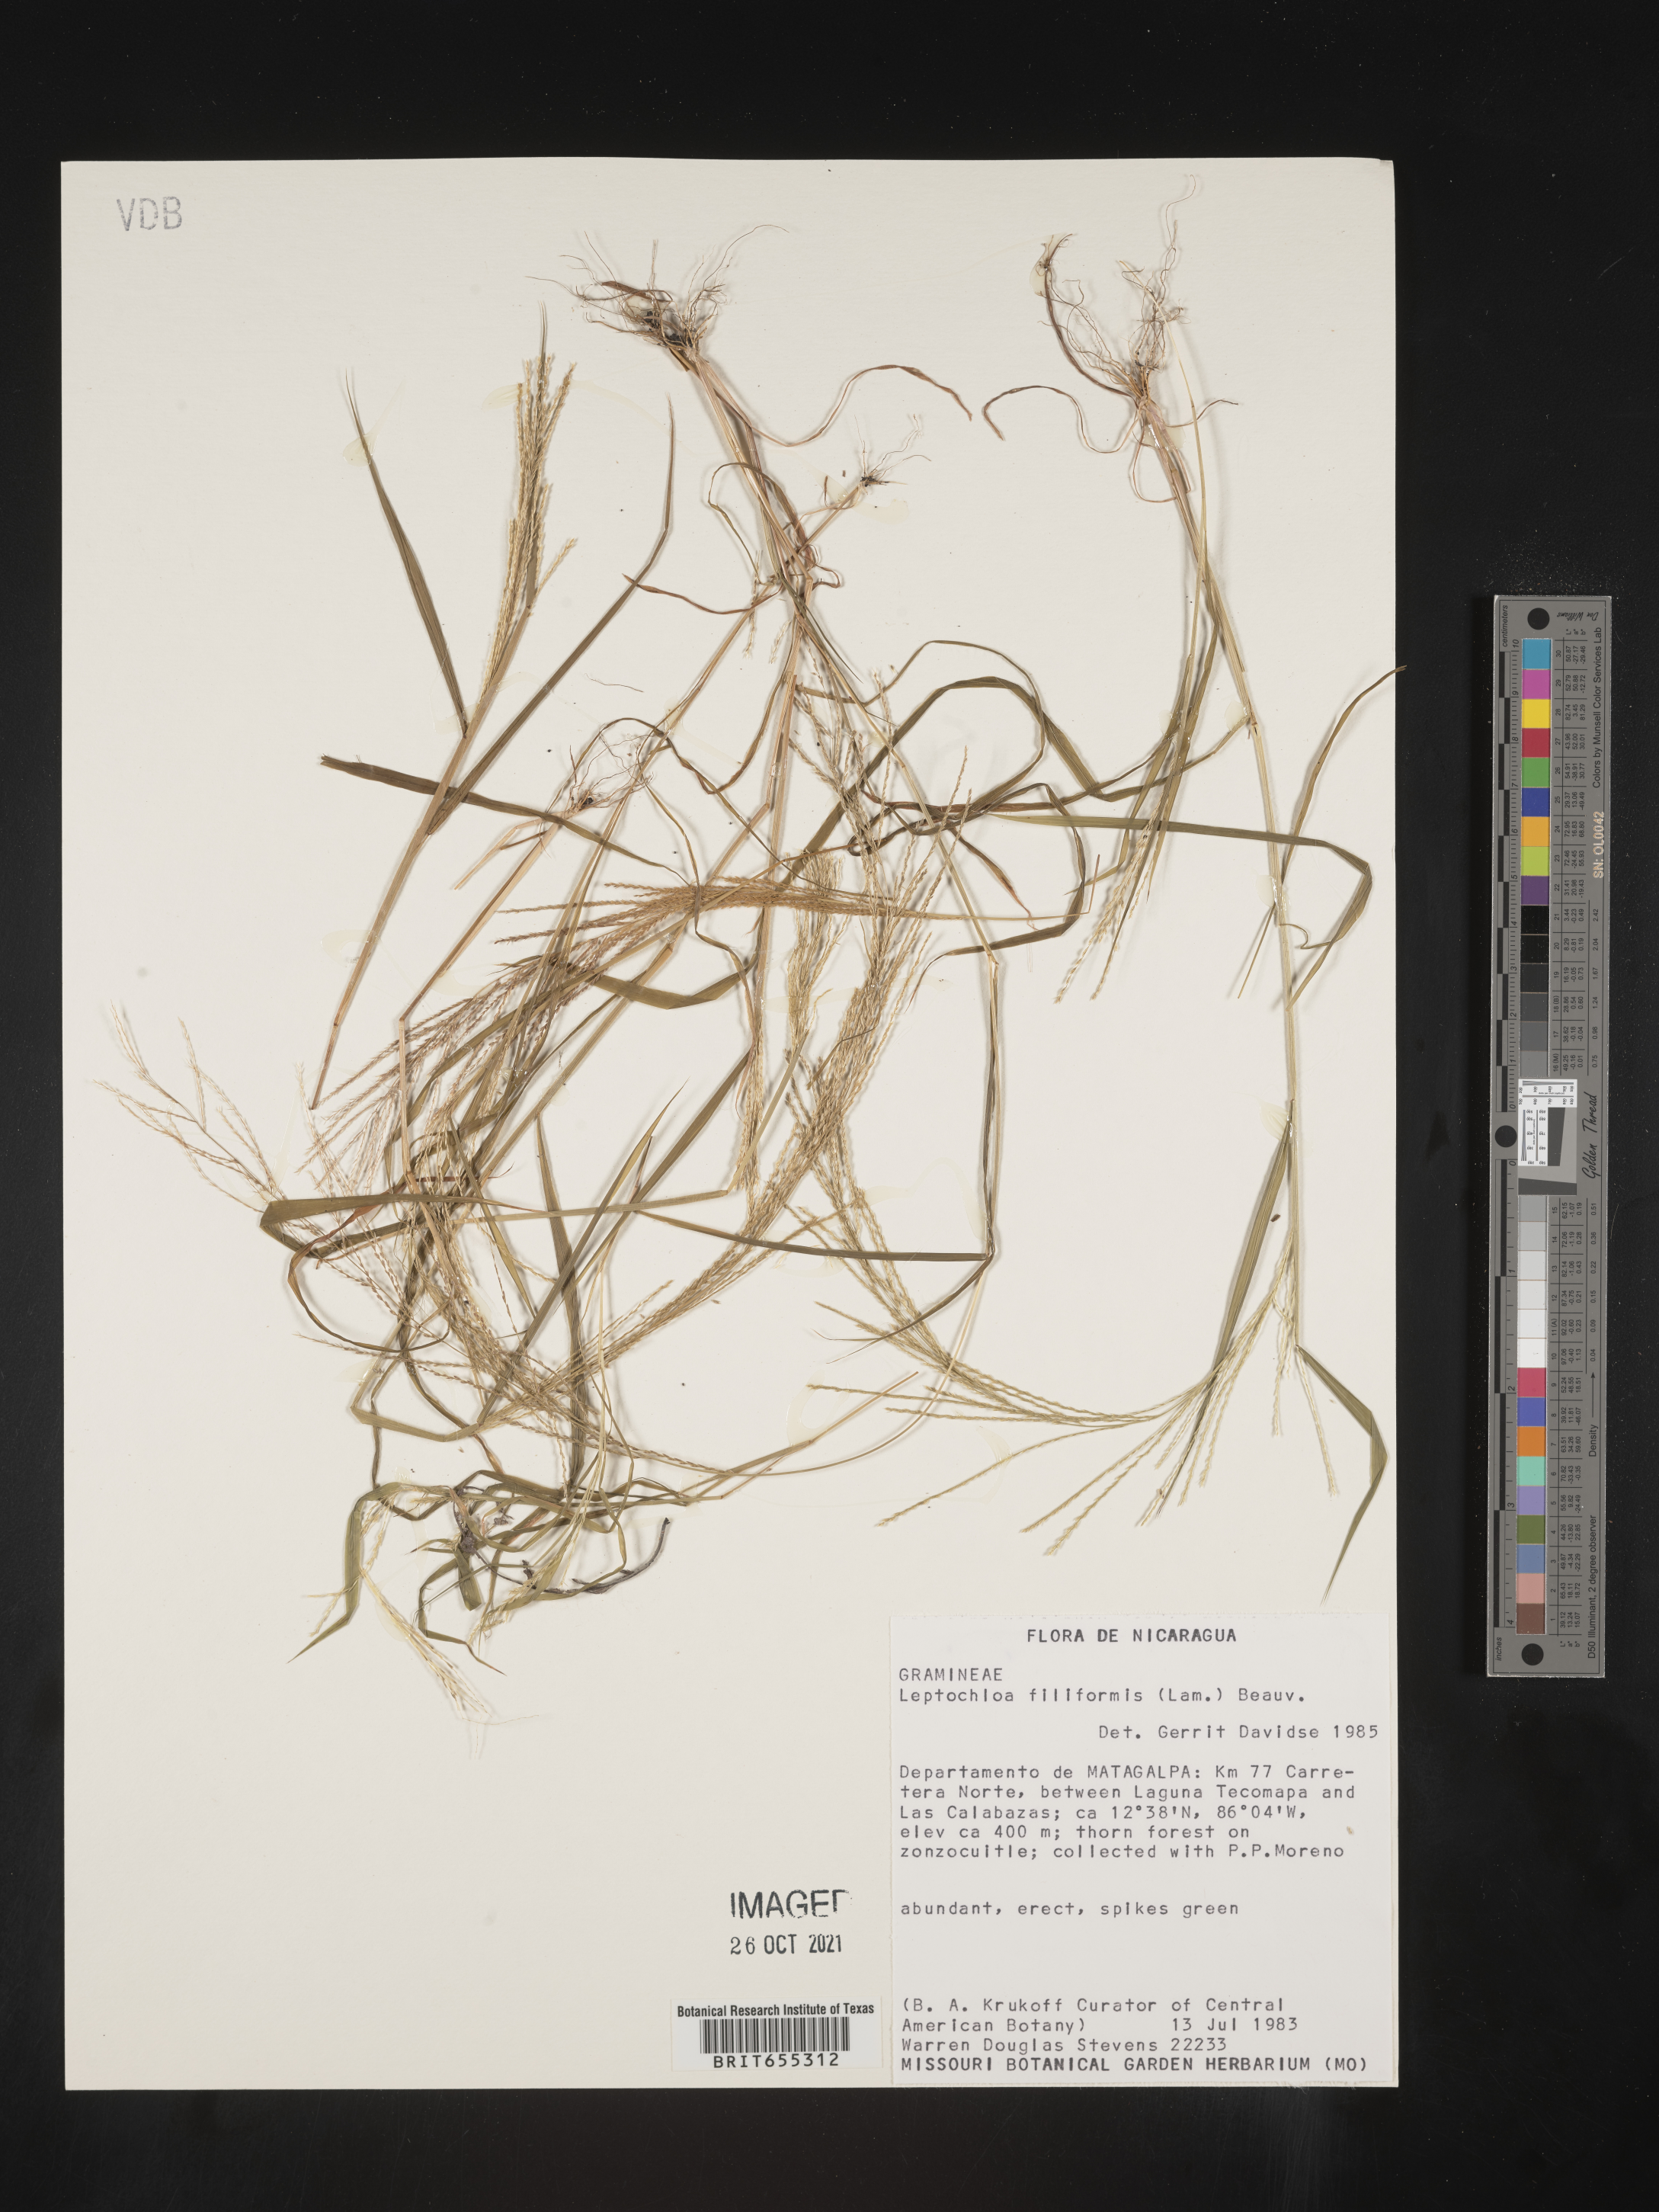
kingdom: Plantae
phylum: Tracheophyta
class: Liliopsida
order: Poales
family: Poaceae
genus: Digitaria
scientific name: Digitaria
